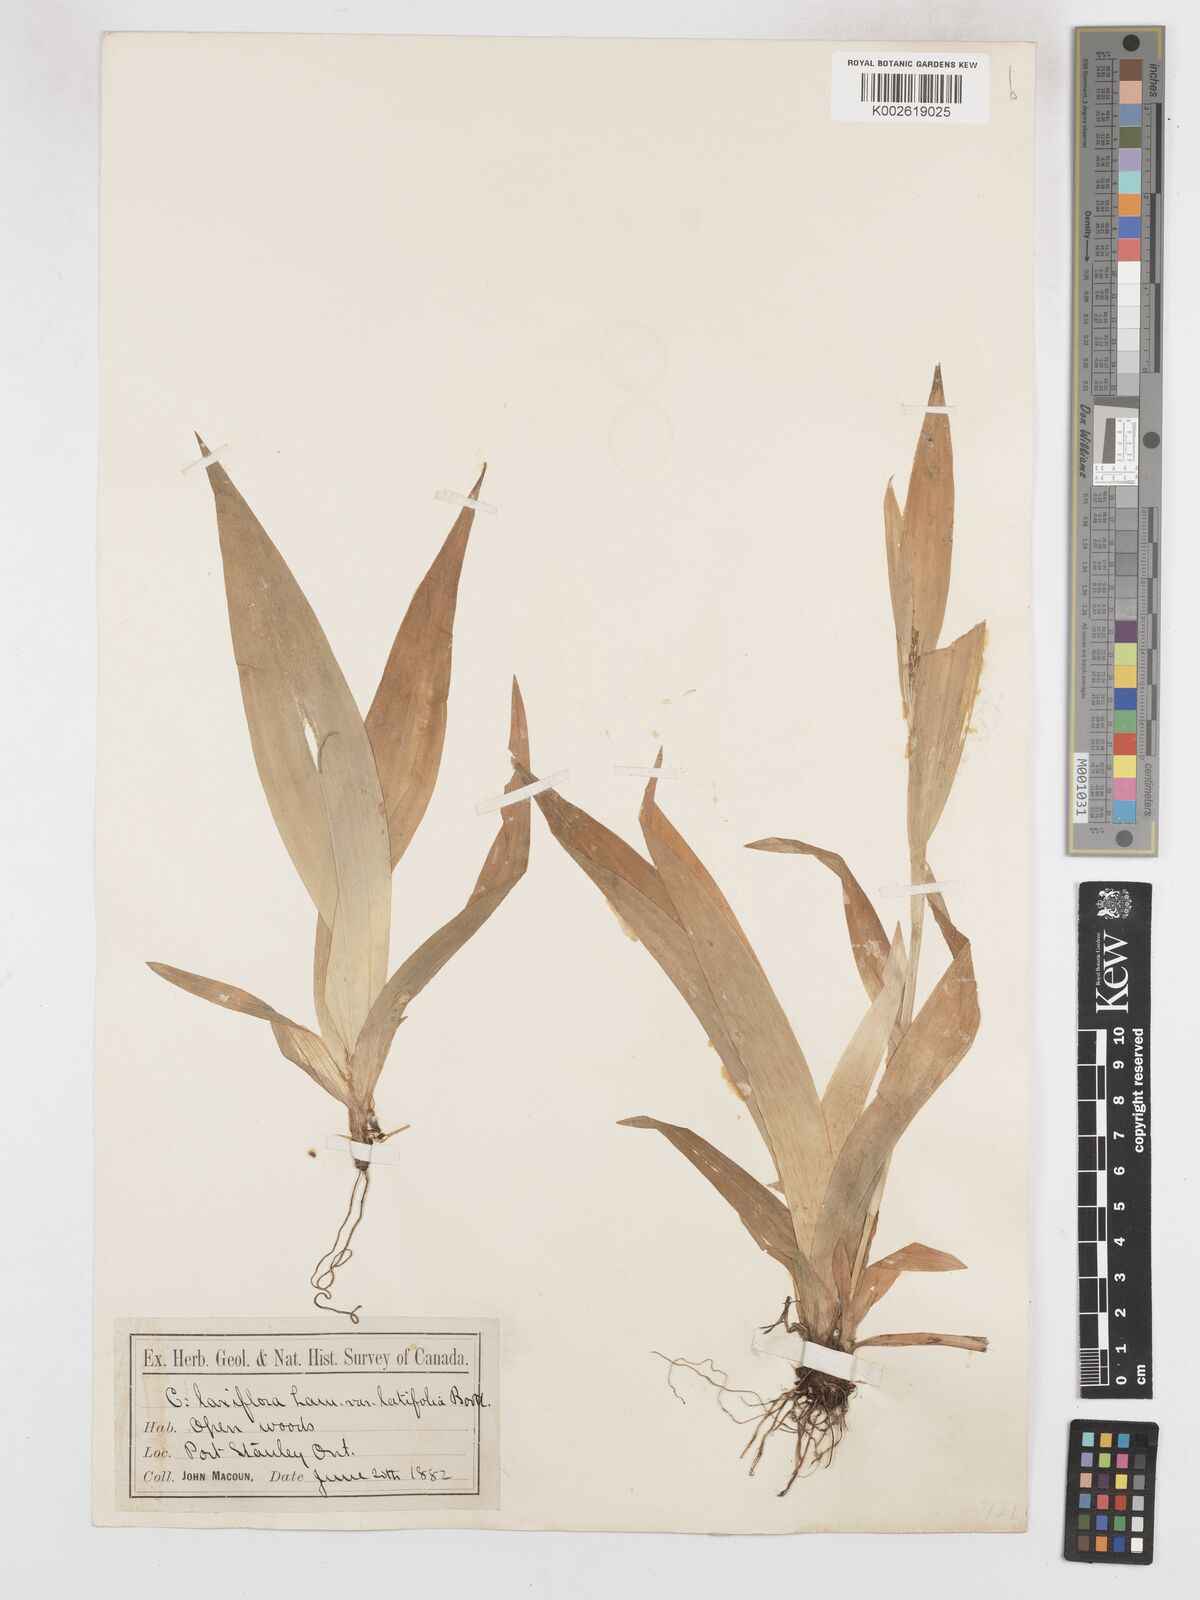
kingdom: Plantae
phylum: Tracheophyta
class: Liliopsida
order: Poales
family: Cyperaceae
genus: Carex
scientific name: Carex albursina
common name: Blunt-scale wood sedge
